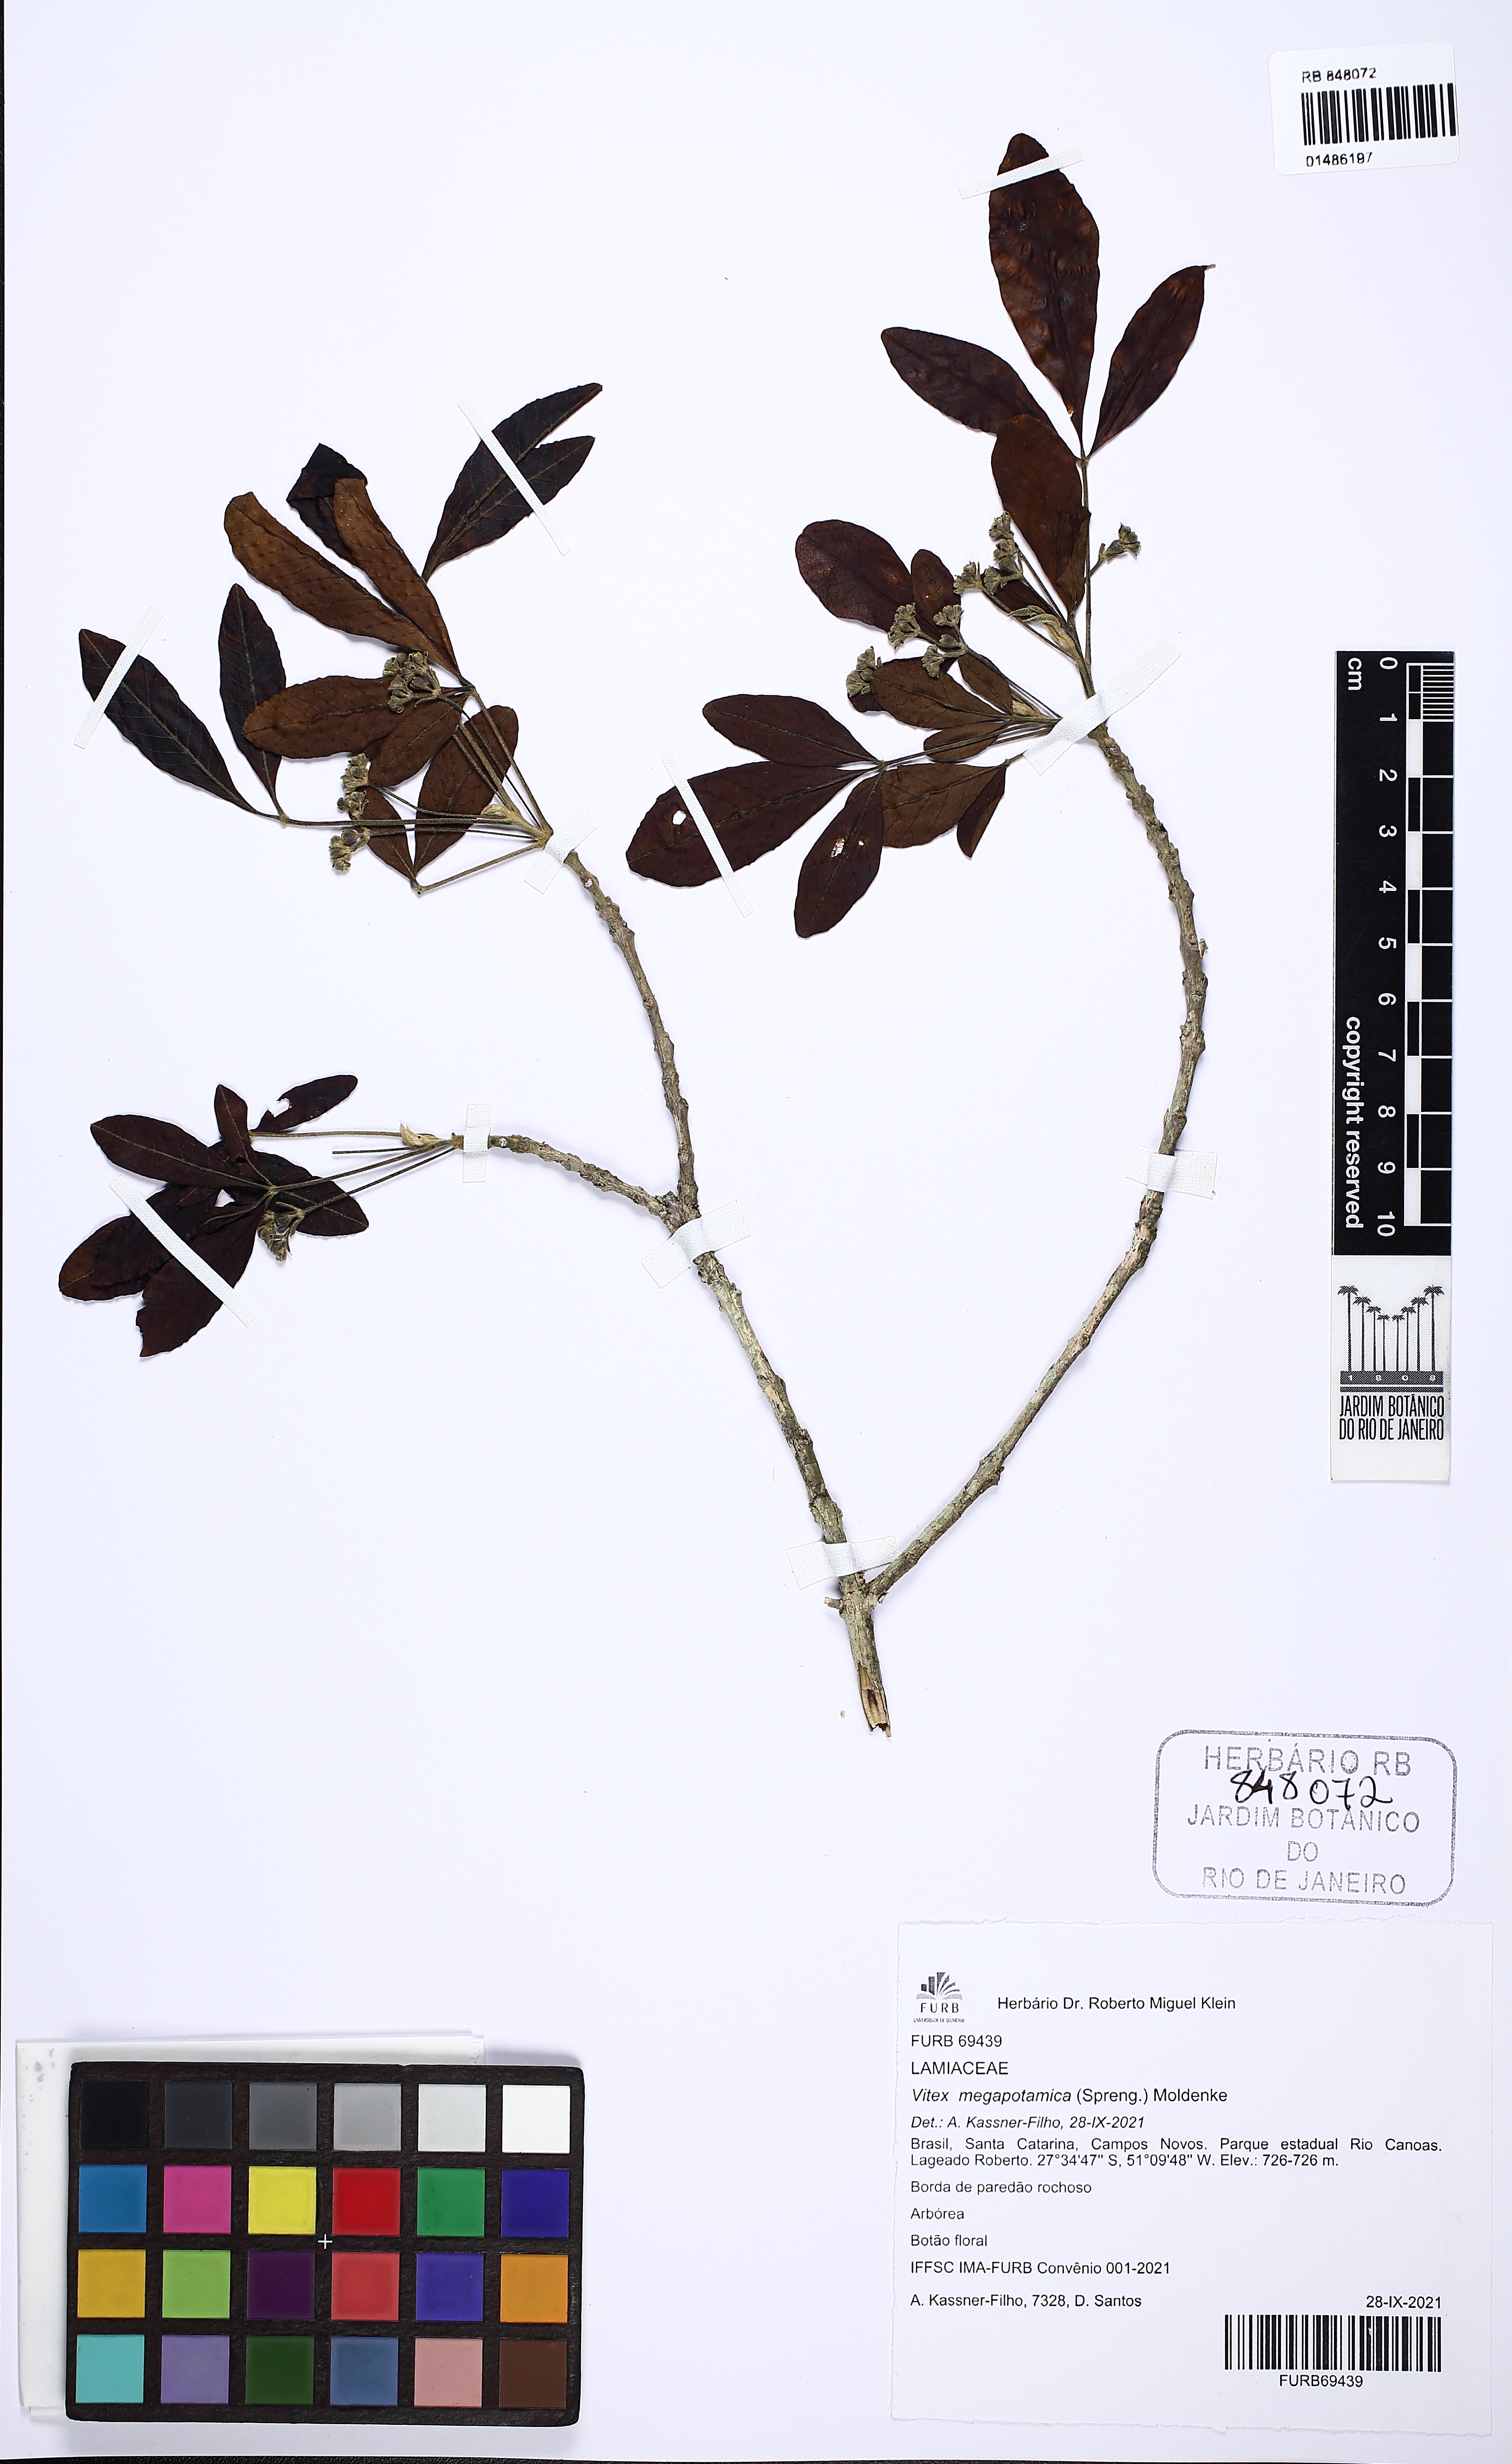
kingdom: Plantae
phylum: Tracheophyta
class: Magnoliopsida
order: Lamiales
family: Lamiaceae
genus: Vitex
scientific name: Vitex megapotamica
